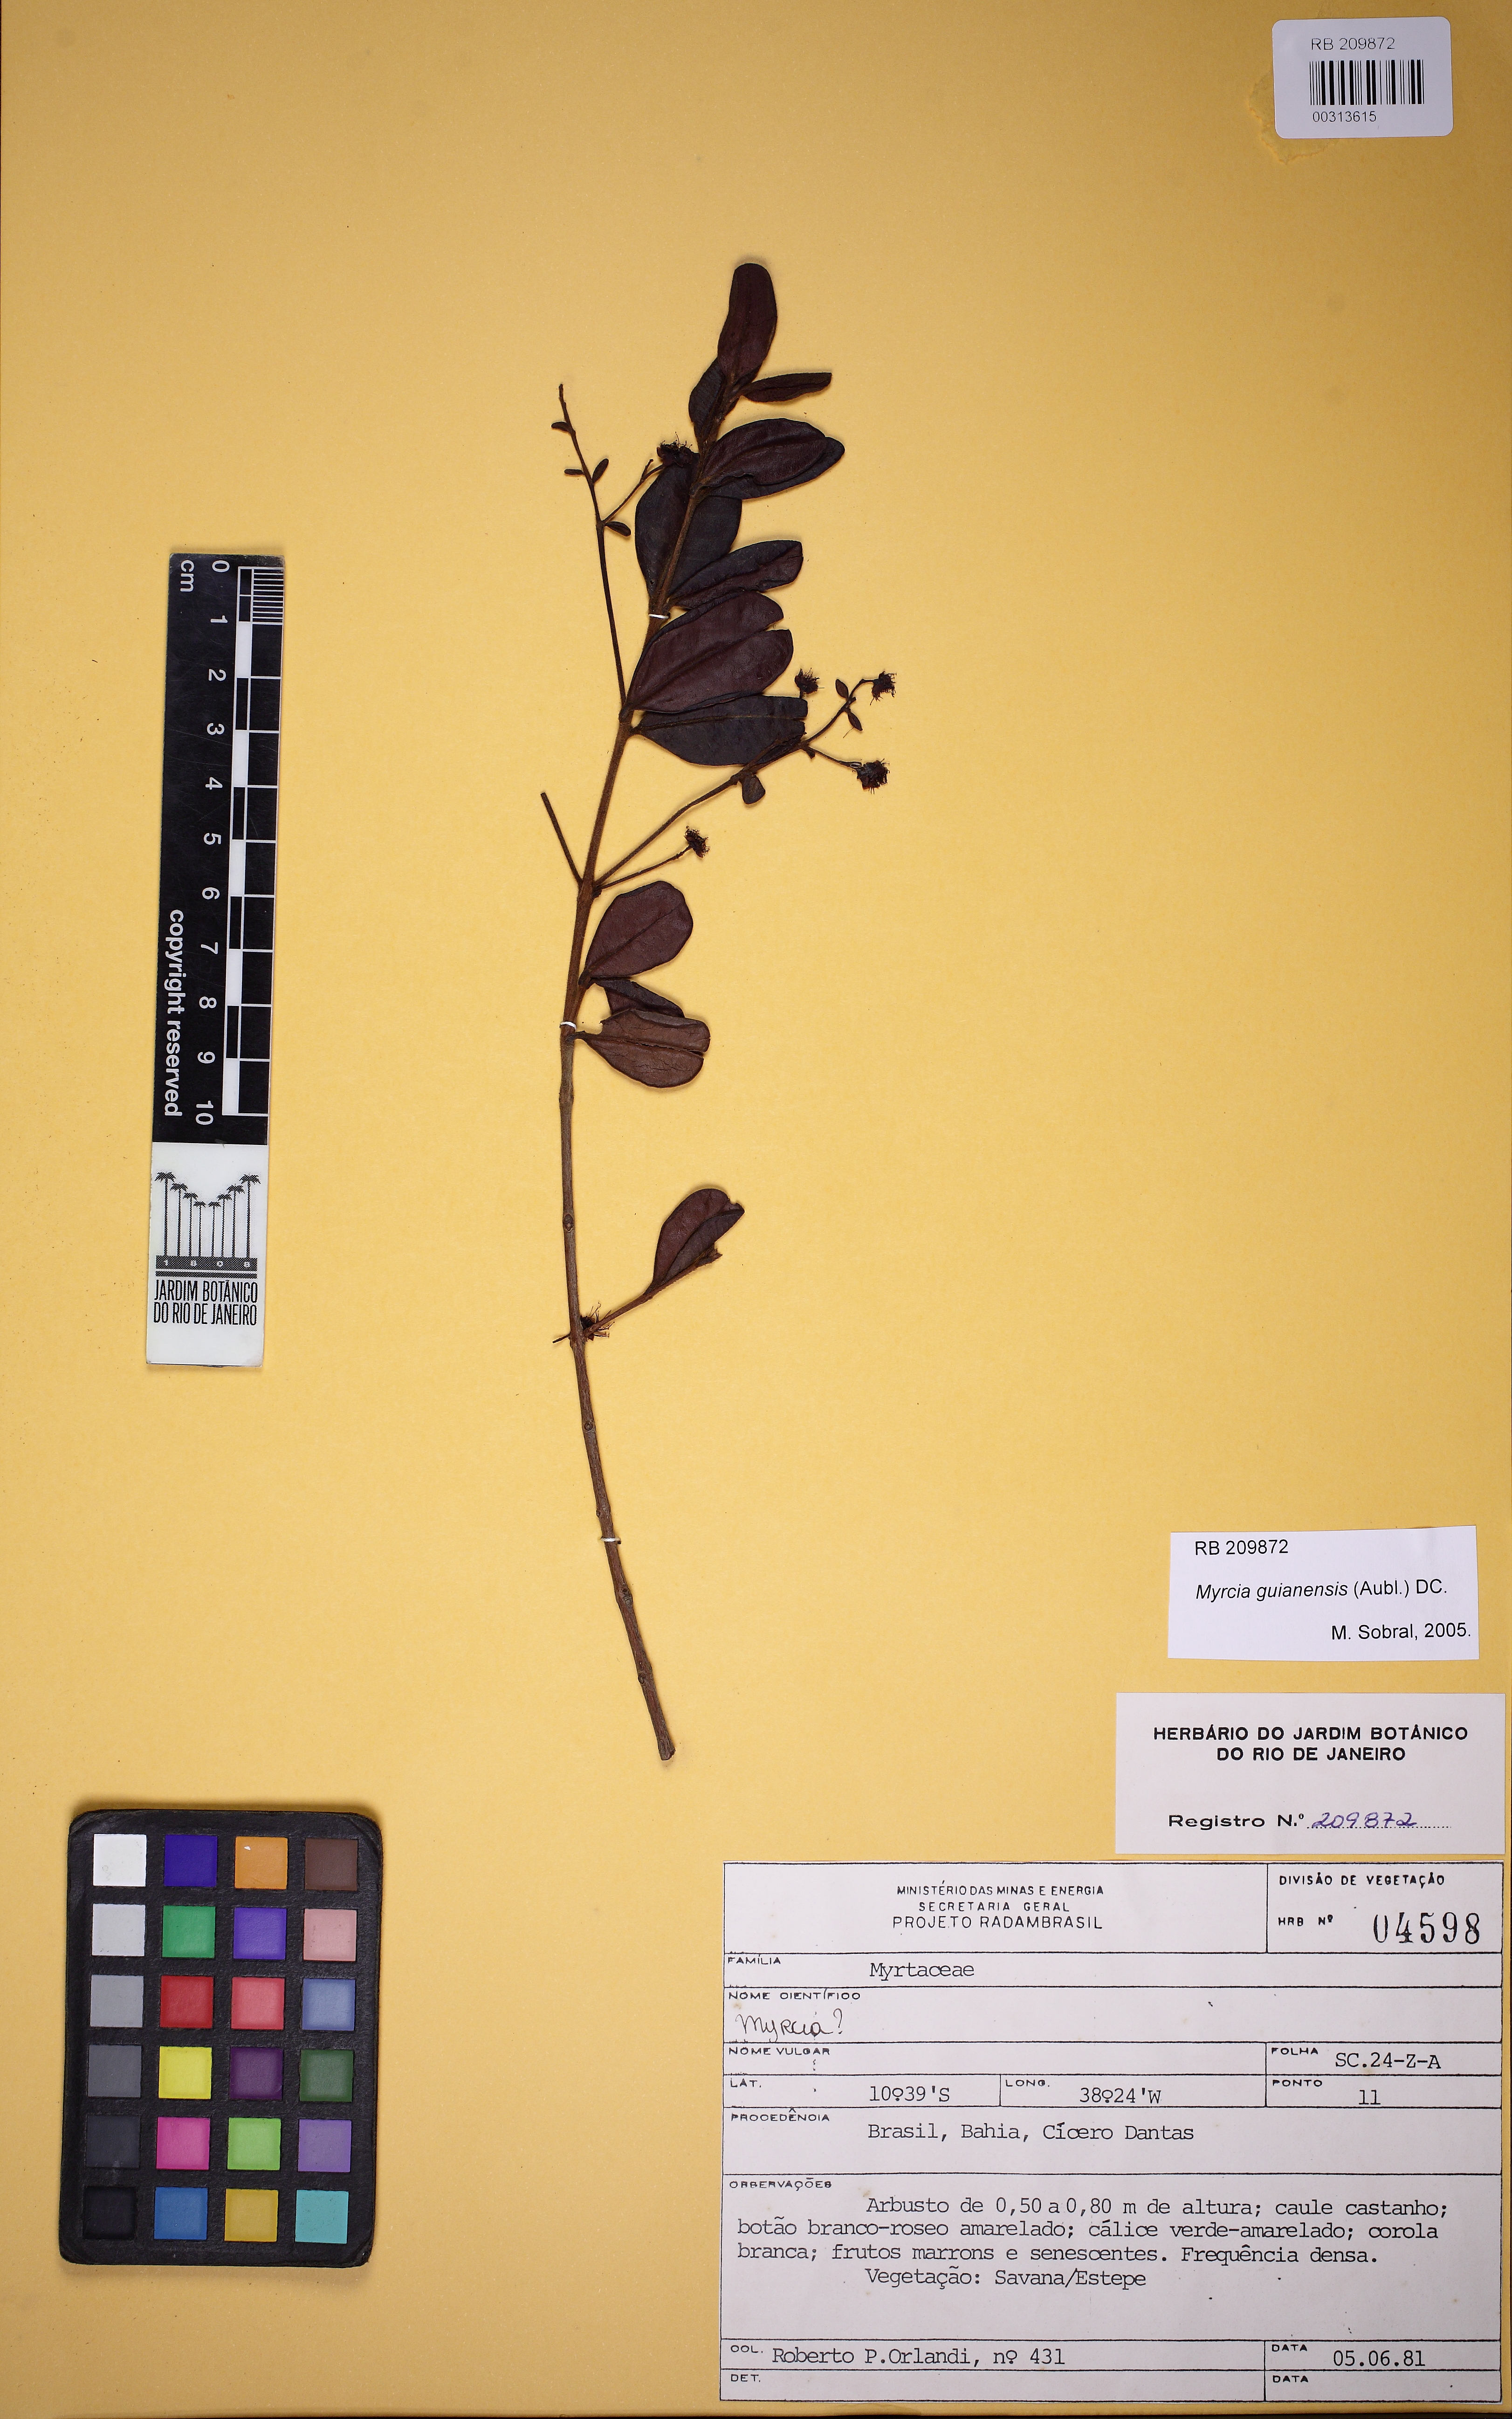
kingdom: Plantae
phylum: Tracheophyta
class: Magnoliopsida
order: Myrtales
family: Myrtaceae
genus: Myrcia
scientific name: Myrcia guianensis
